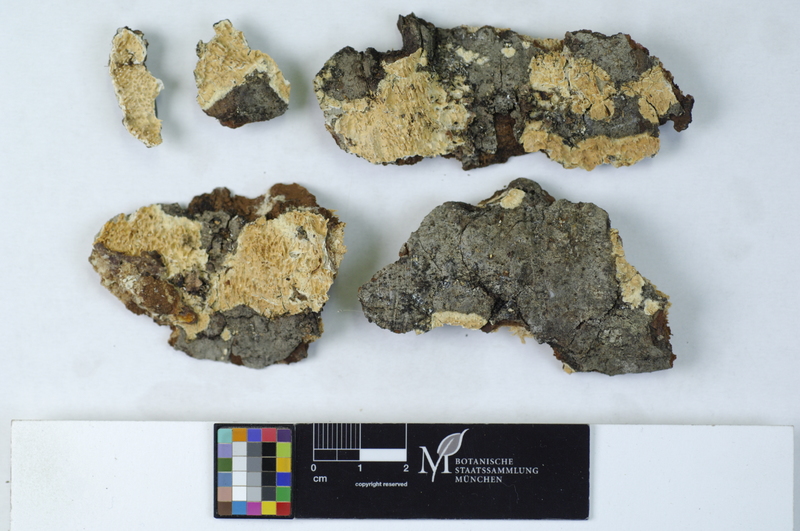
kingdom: Plantae
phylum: Tracheophyta
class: Pinopsida
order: Pinales
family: Pinaceae
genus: Abies
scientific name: Abies
